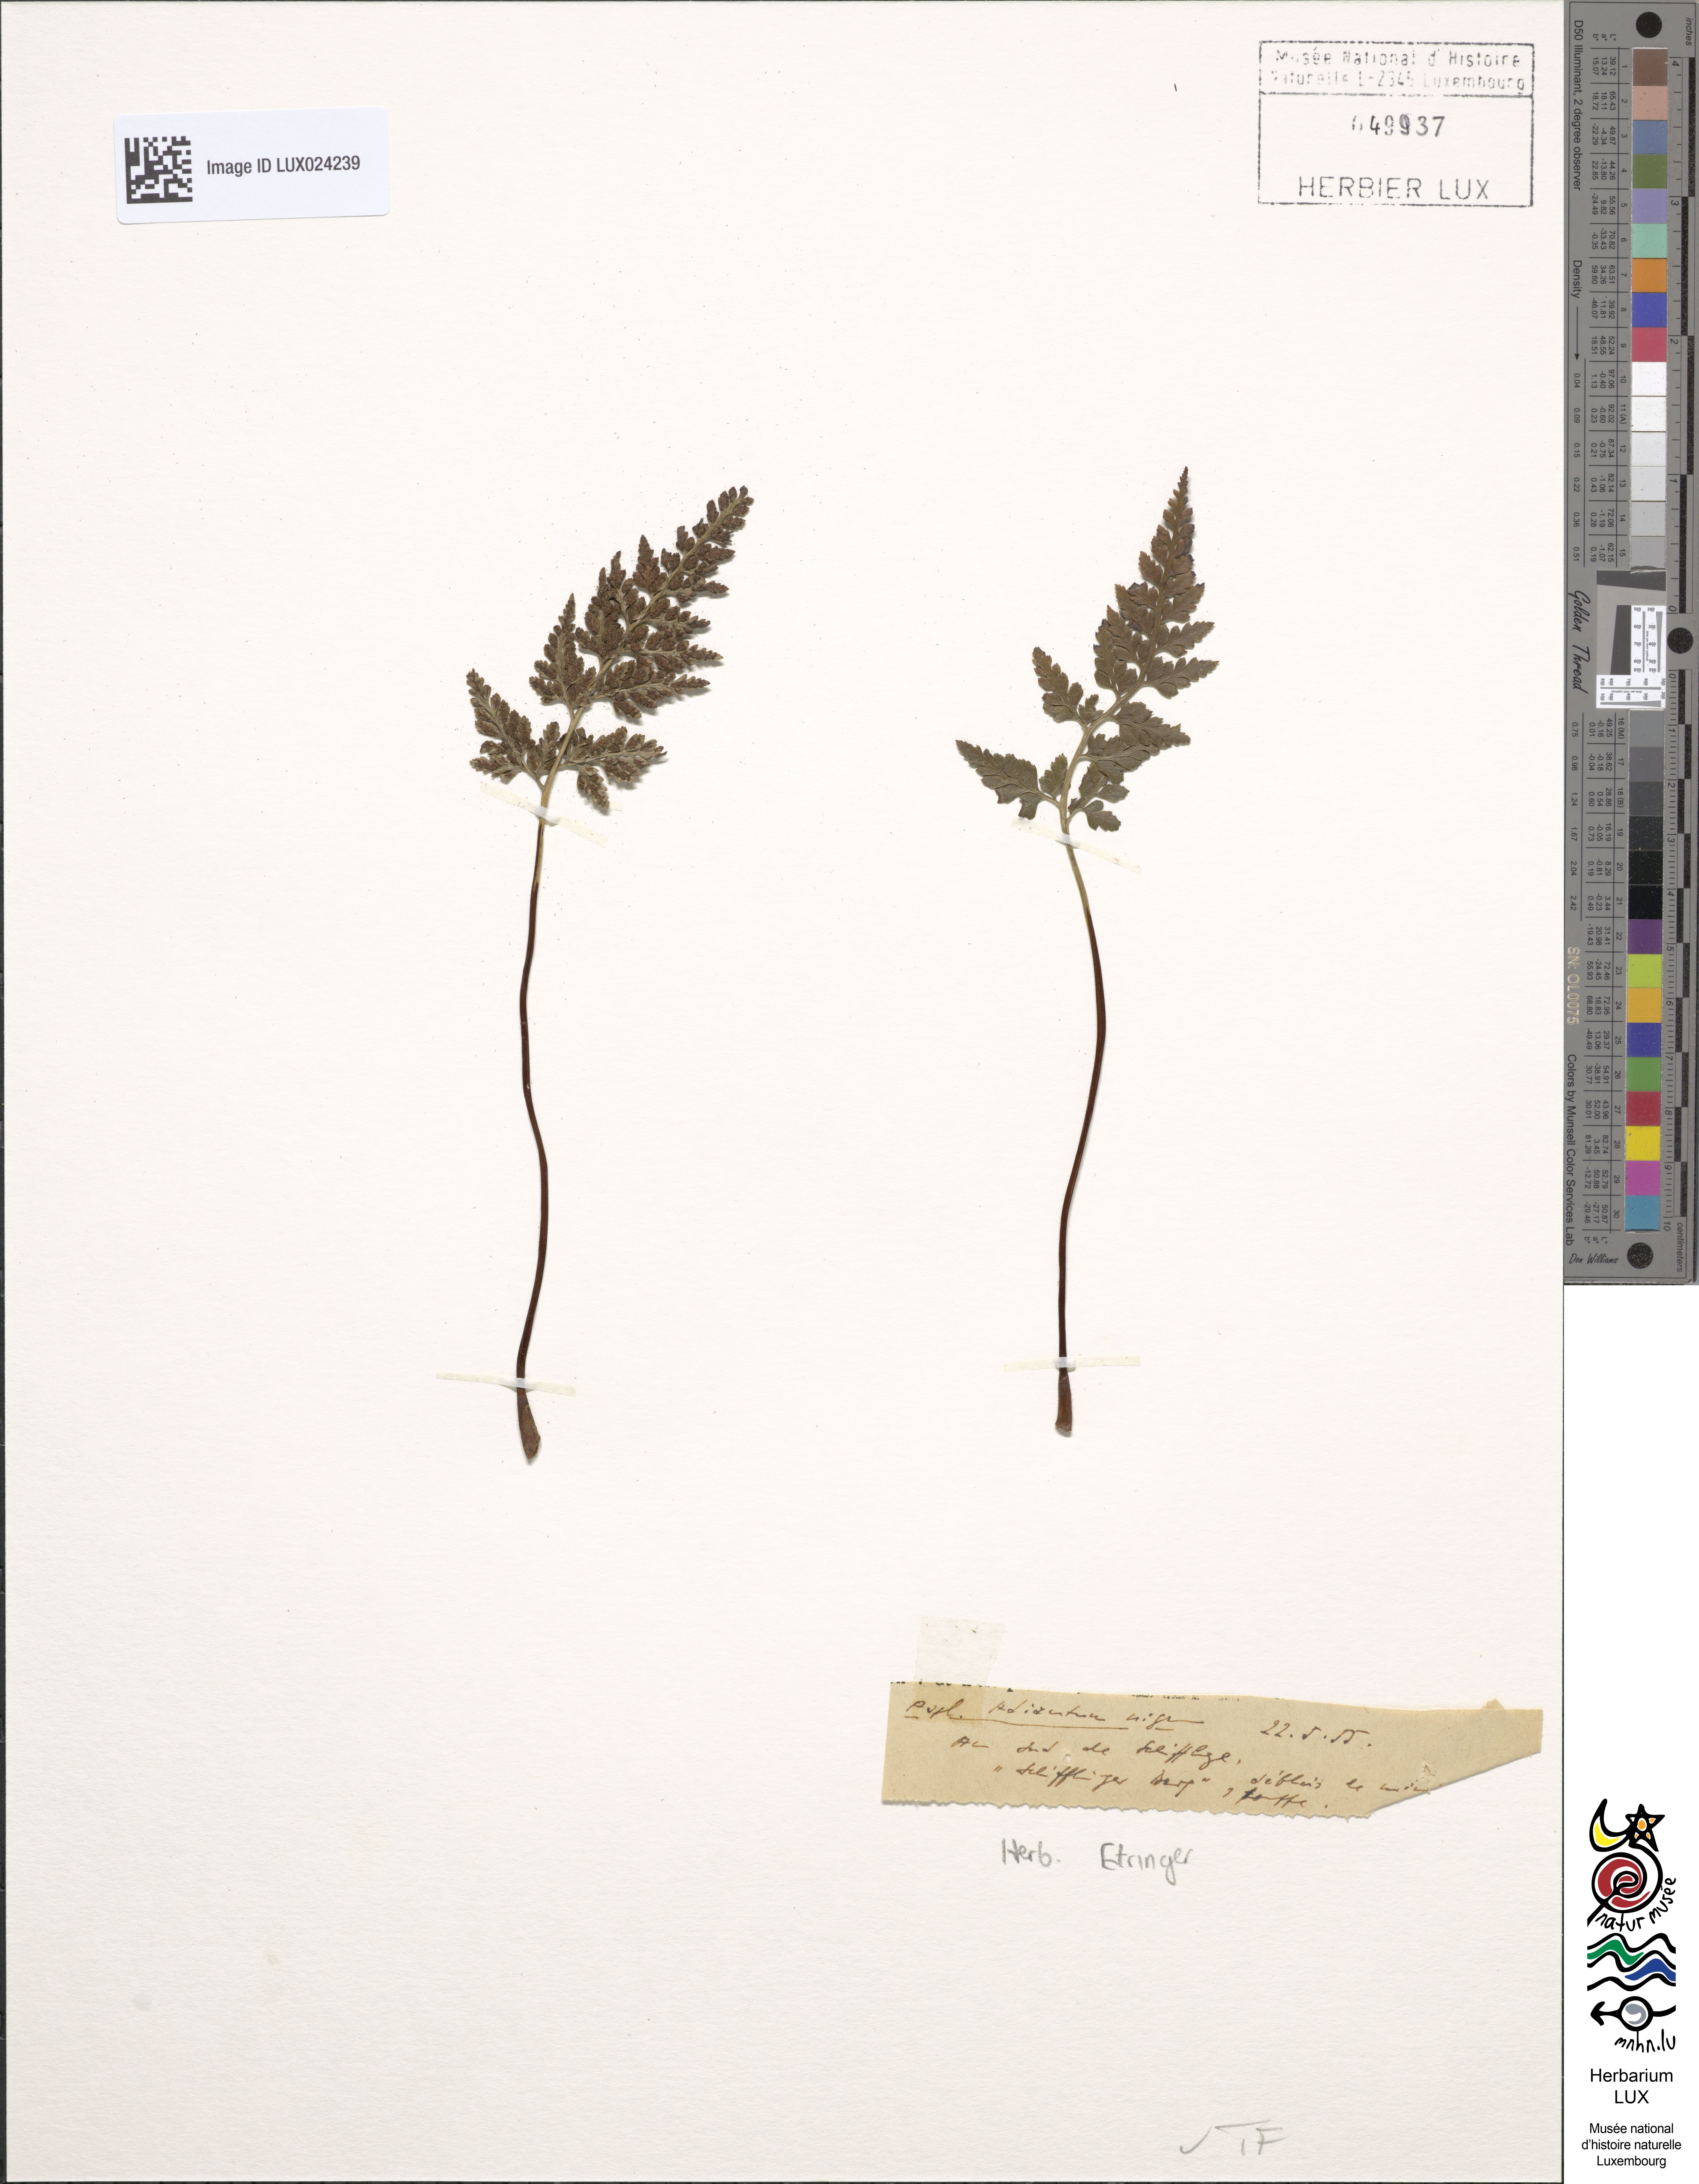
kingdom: Plantae
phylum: Tracheophyta
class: Polypodiopsida
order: Polypodiales
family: Aspleniaceae
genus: Asplenium
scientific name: Asplenium adiantum-nigrum
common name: Black spleenwort
